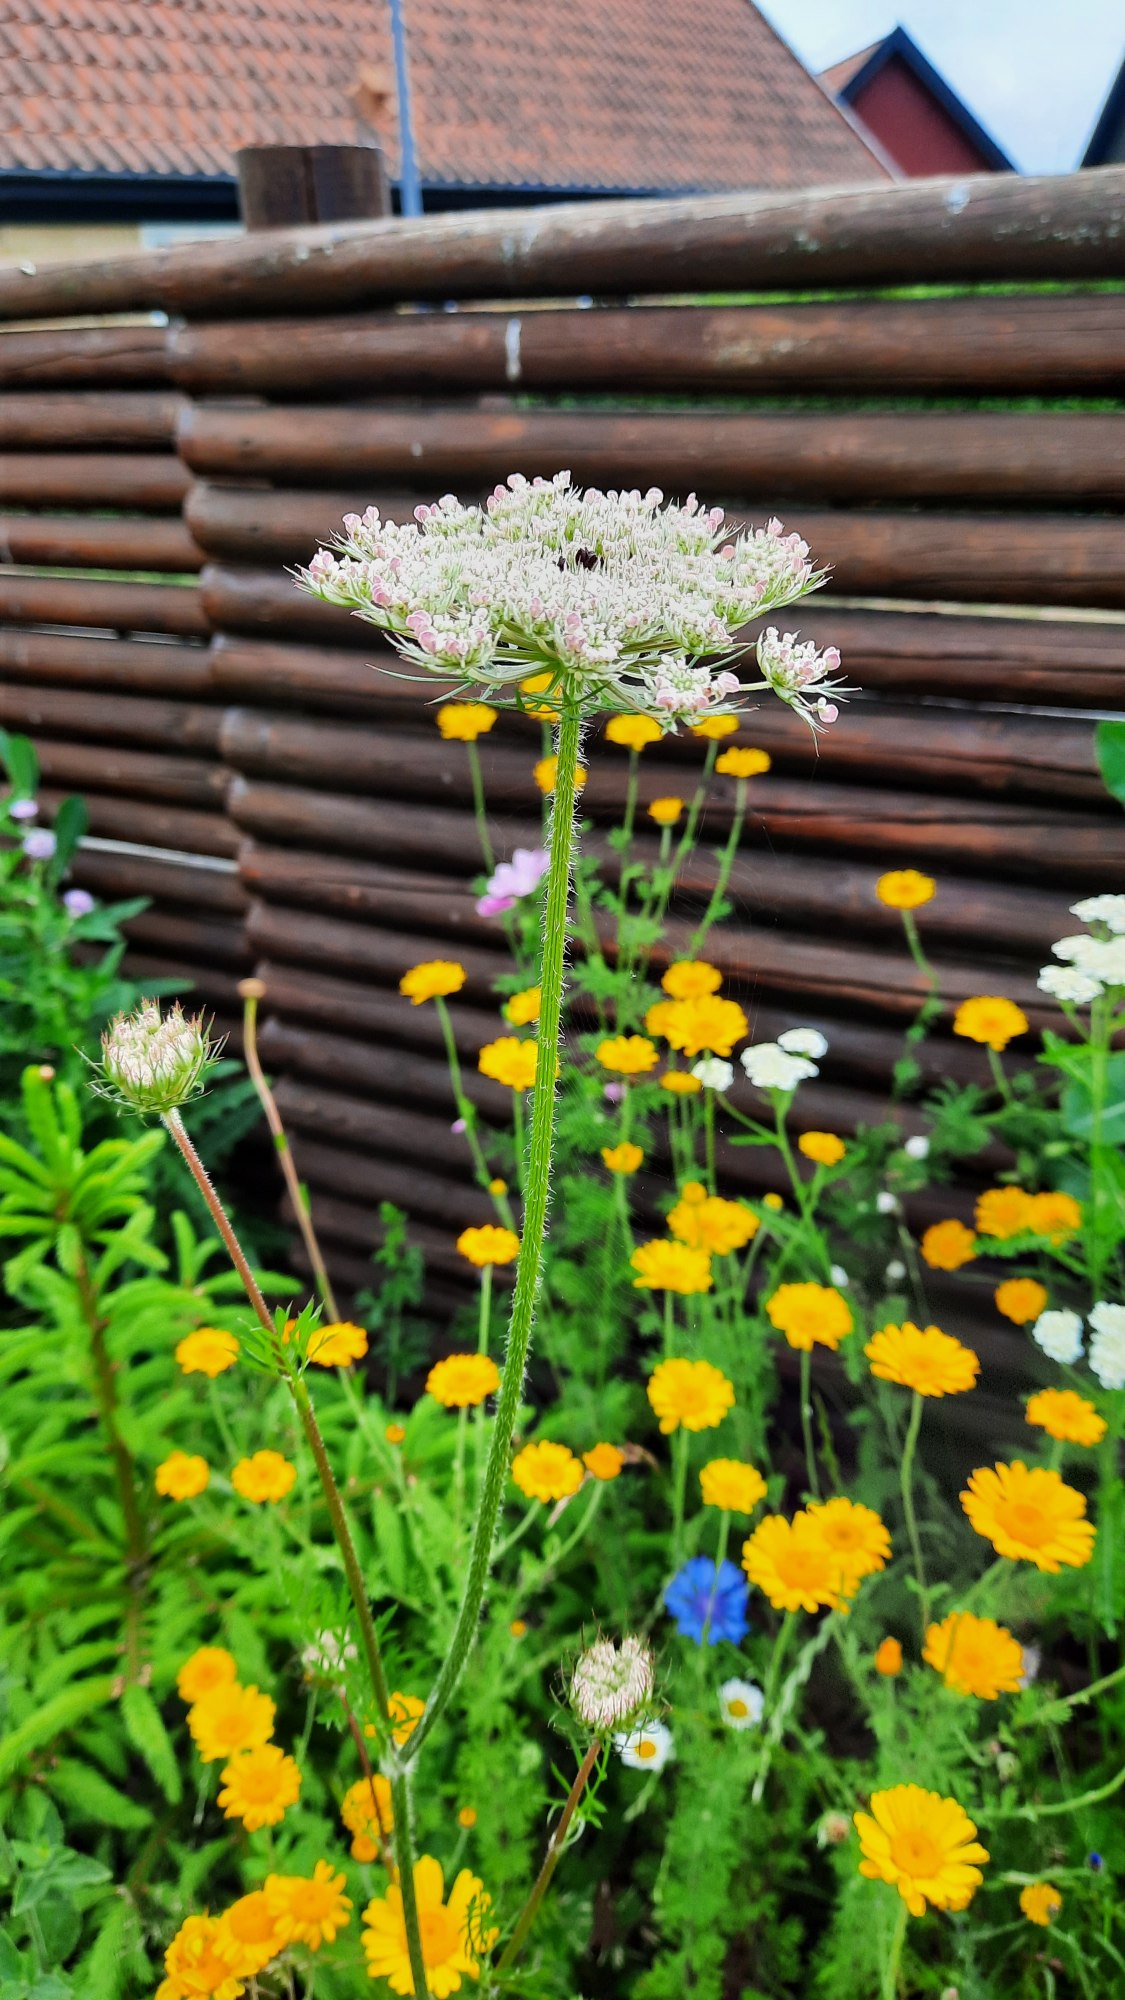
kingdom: Plantae
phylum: Tracheophyta
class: Magnoliopsida
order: Apiales
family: Apiaceae
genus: Daucus
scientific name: Daucus carota
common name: Gulerod
